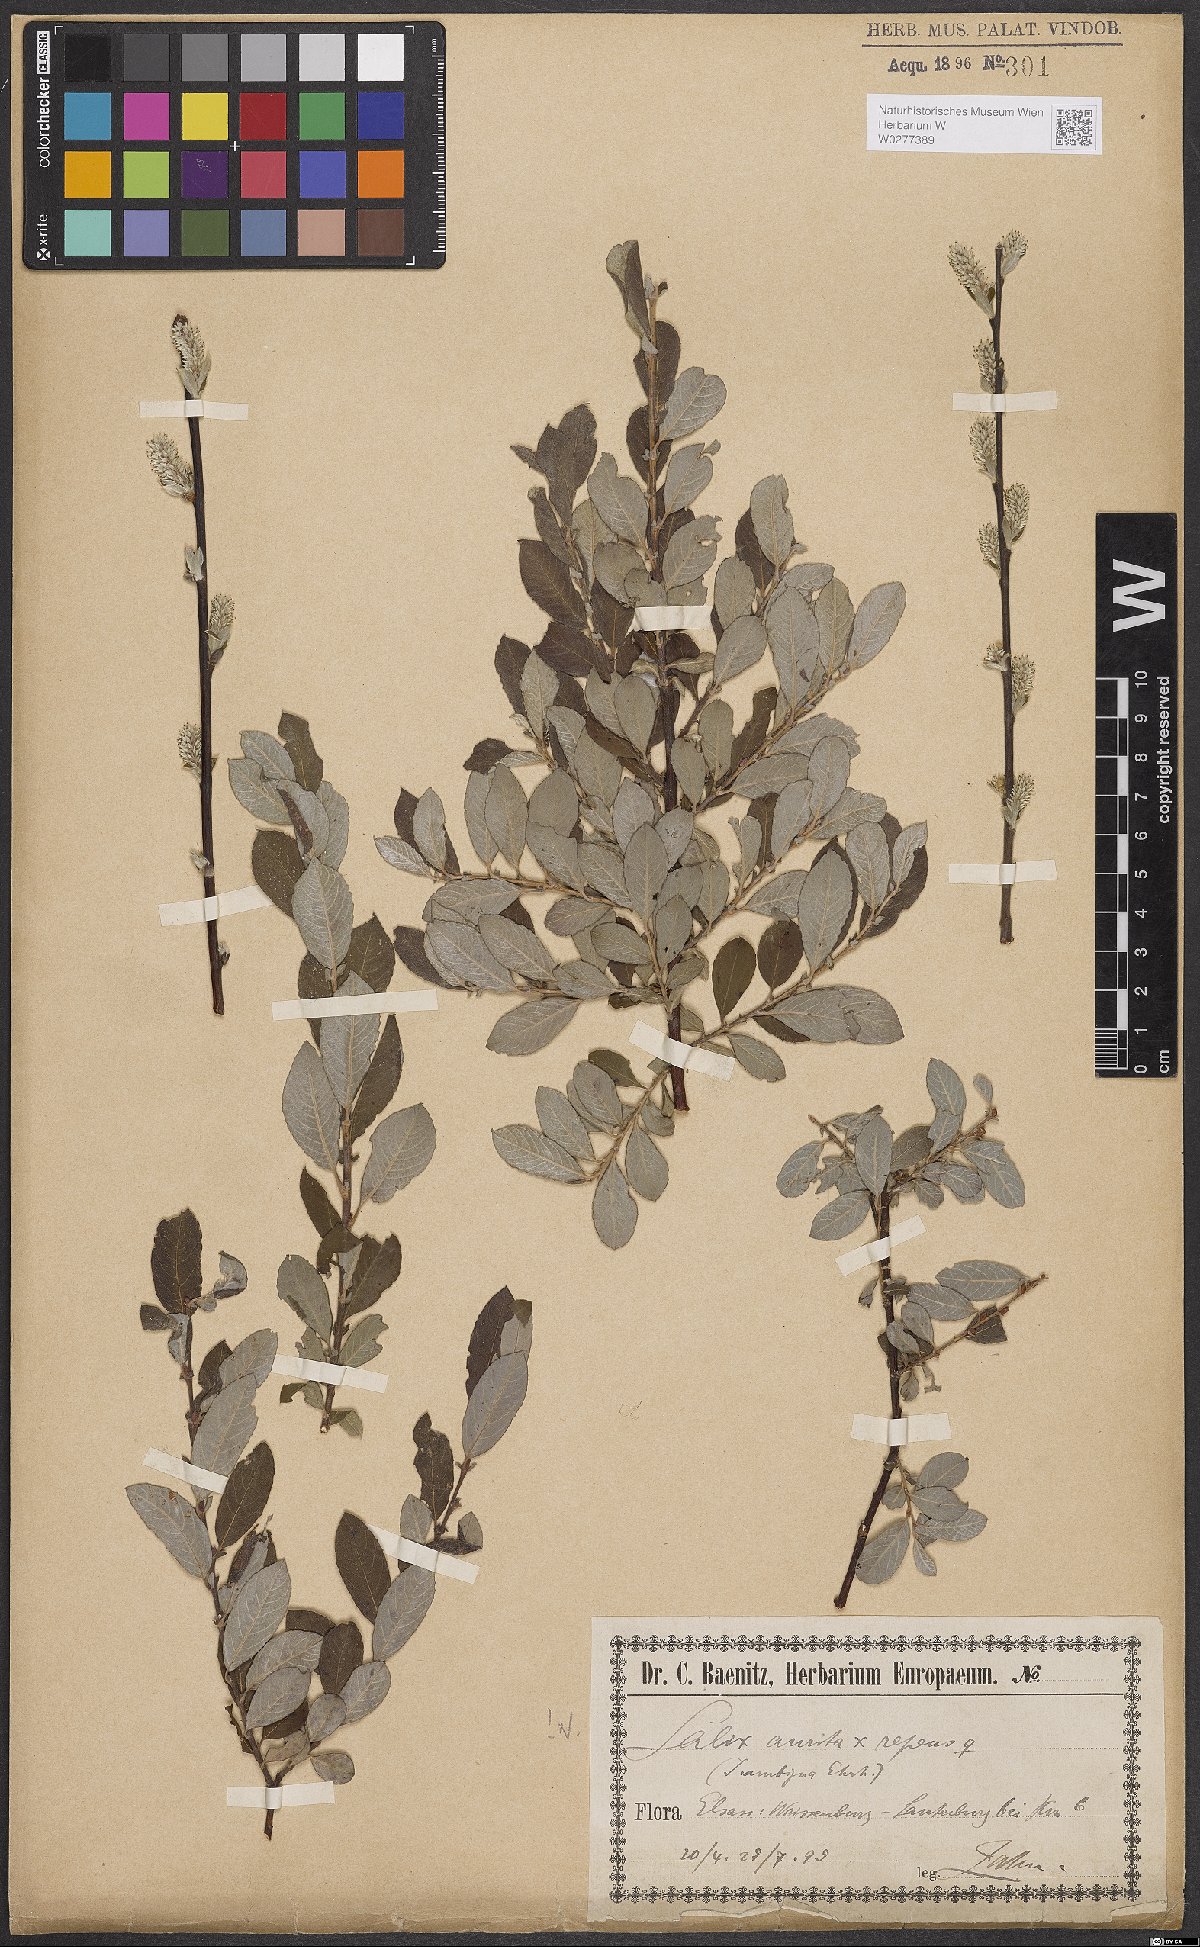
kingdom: Plantae
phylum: Tracheophyta
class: Magnoliopsida
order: Malpighiales
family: Salicaceae
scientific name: Salicaceae
